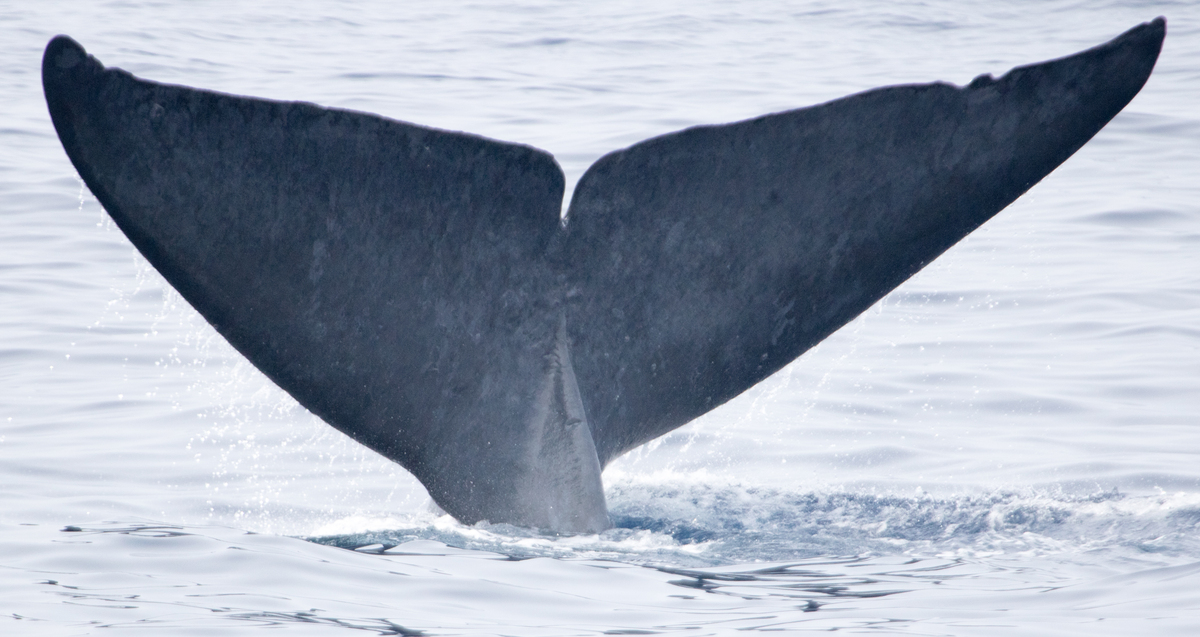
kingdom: Animalia
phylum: Chordata
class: Mammalia
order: Cetacea
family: Balaenopteridae
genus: Balaenoptera
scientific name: Balaenoptera musculus
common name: Blue whale
